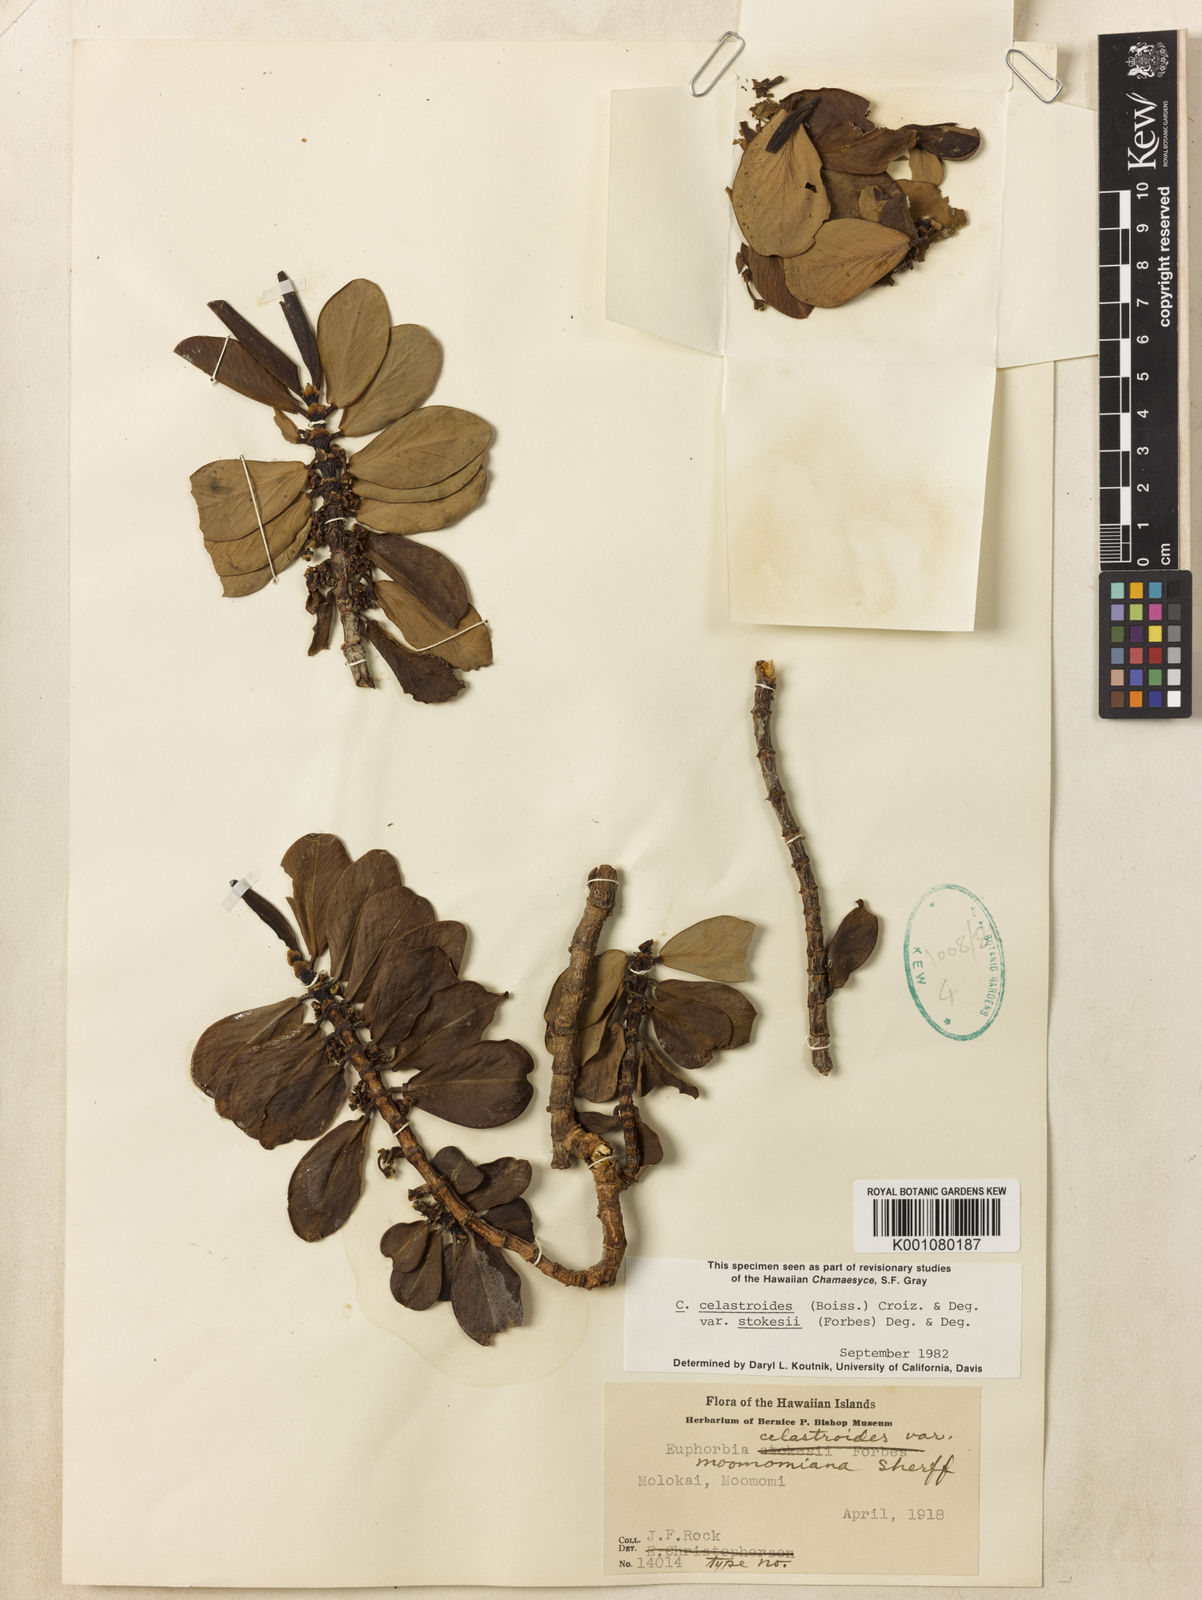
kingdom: Plantae
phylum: Tracheophyta
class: Magnoliopsida
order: Malpighiales
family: Euphorbiaceae
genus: Euphorbia
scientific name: Euphorbia celastroides
